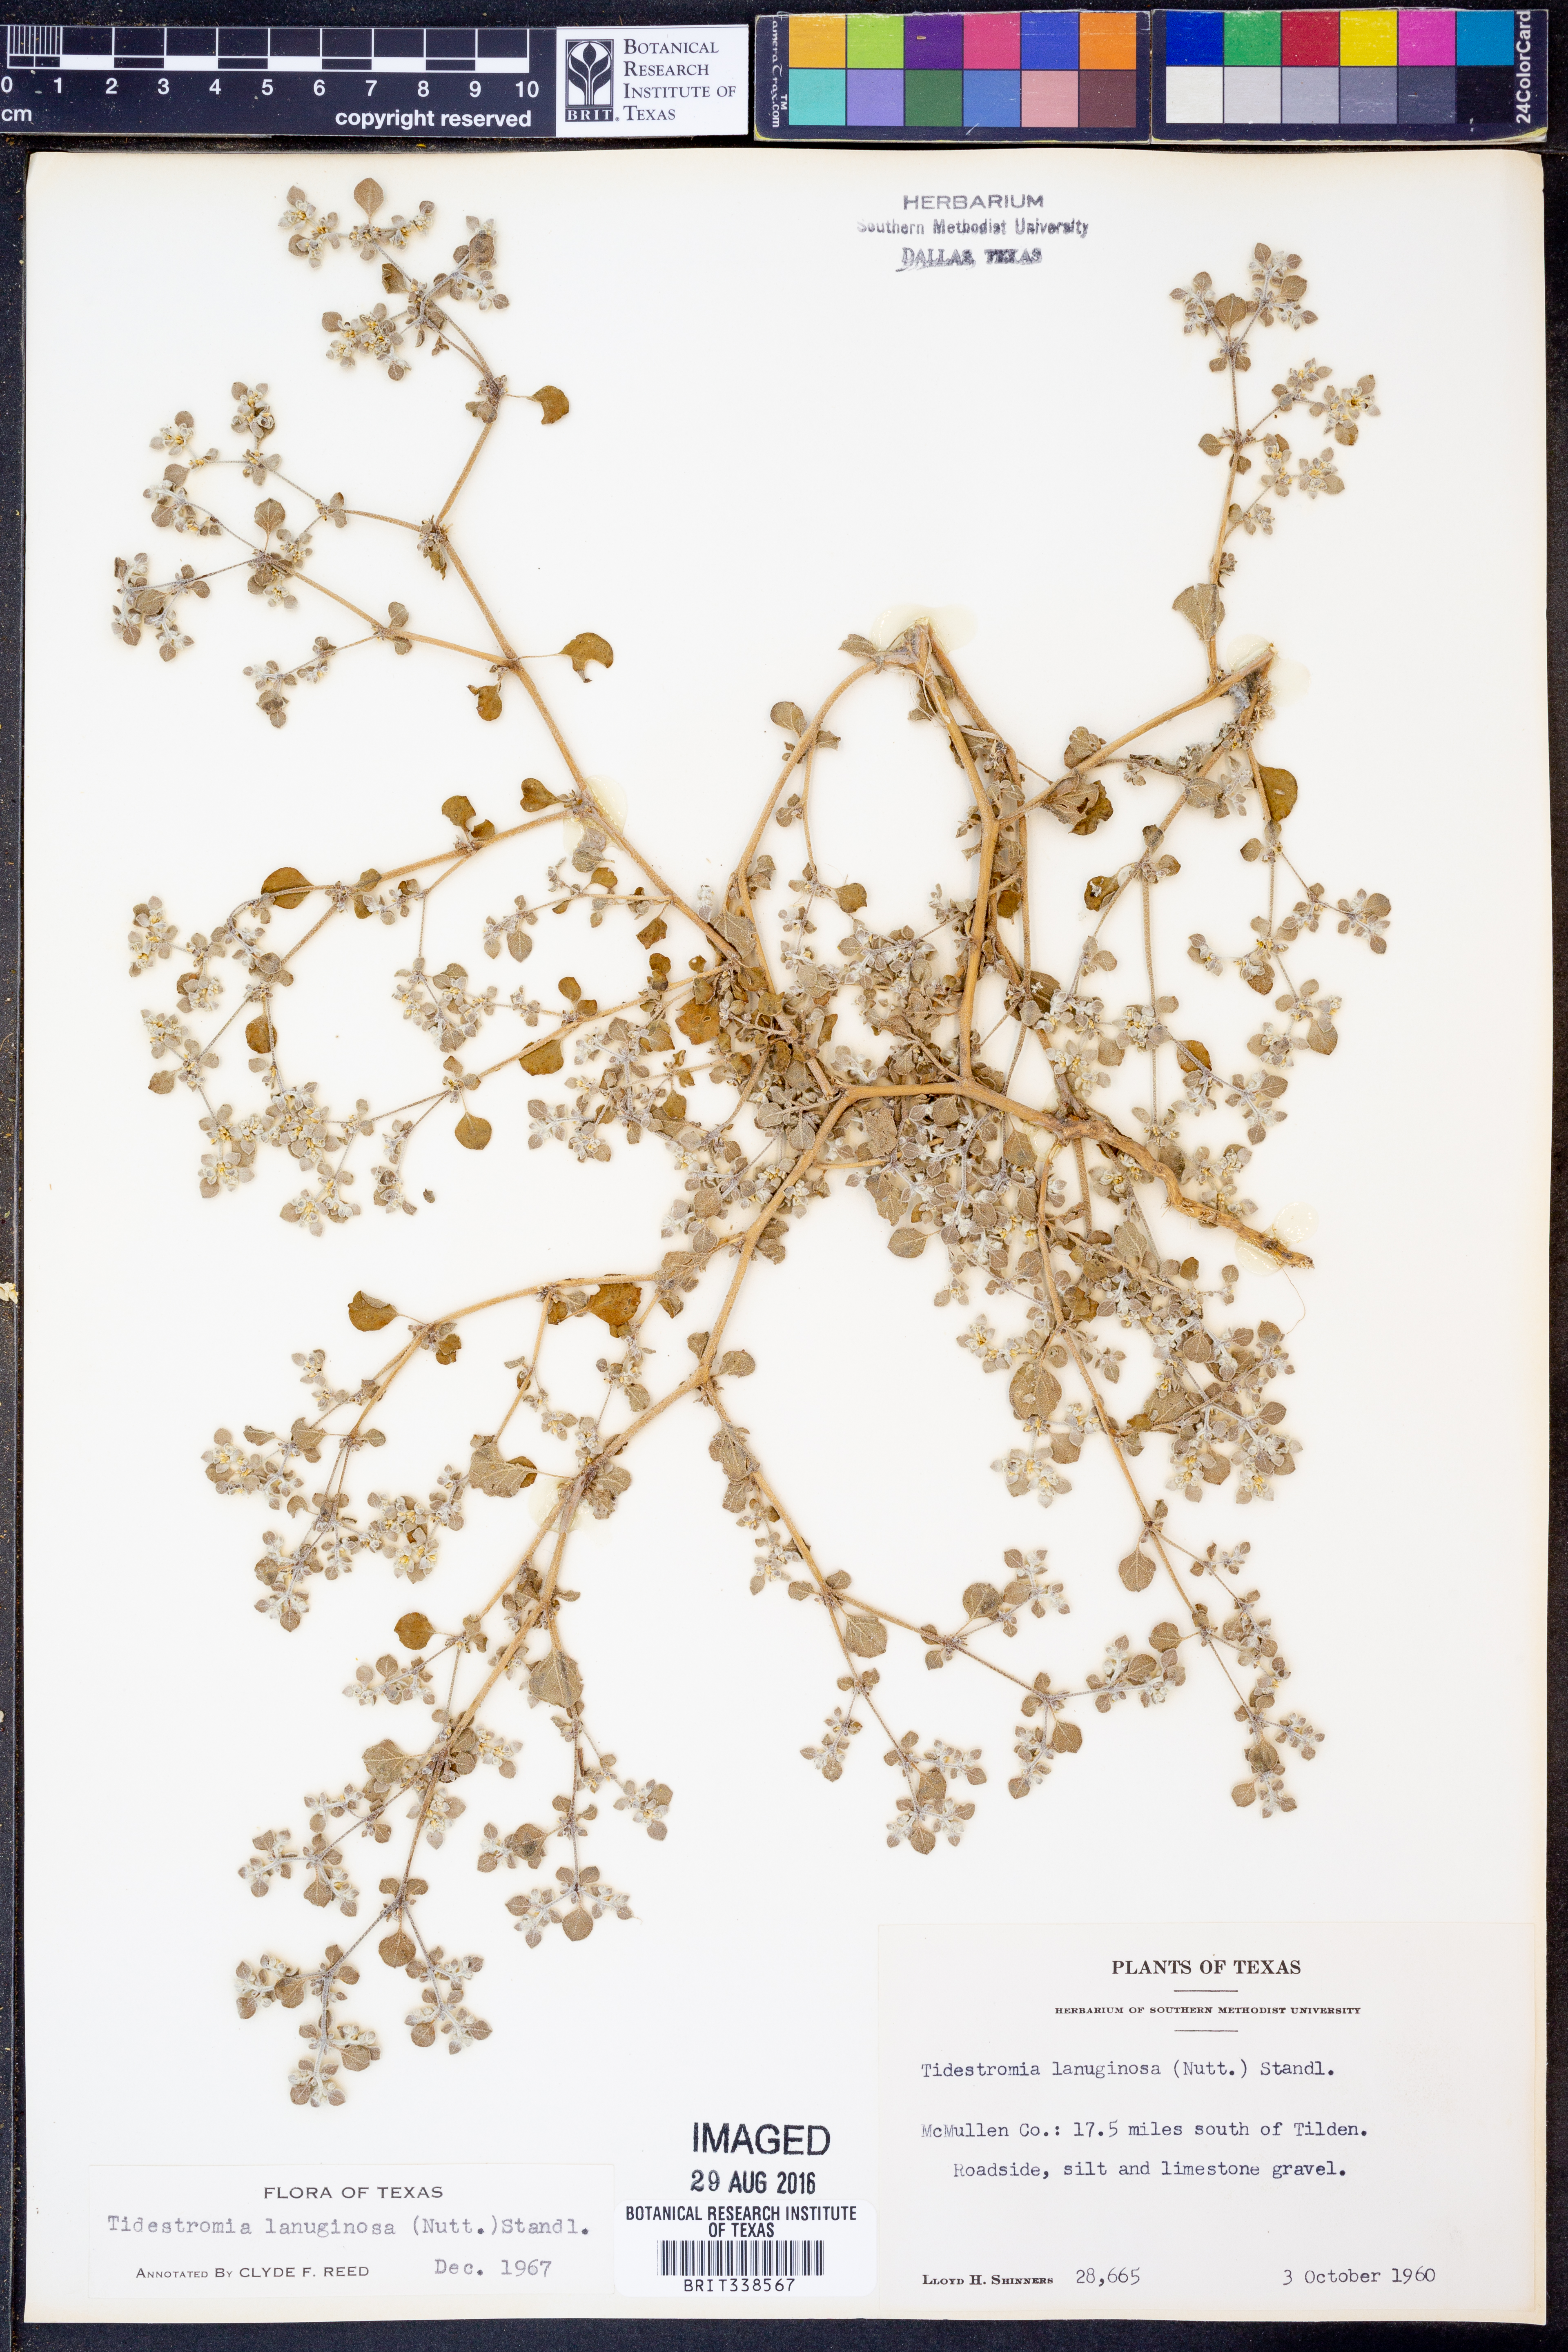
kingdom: Plantae
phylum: Tracheophyta
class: Magnoliopsida
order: Caryophyllales
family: Amaranthaceae
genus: Tidestromia
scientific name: Tidestromia lanuginosa
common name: Woolly tidestromia
